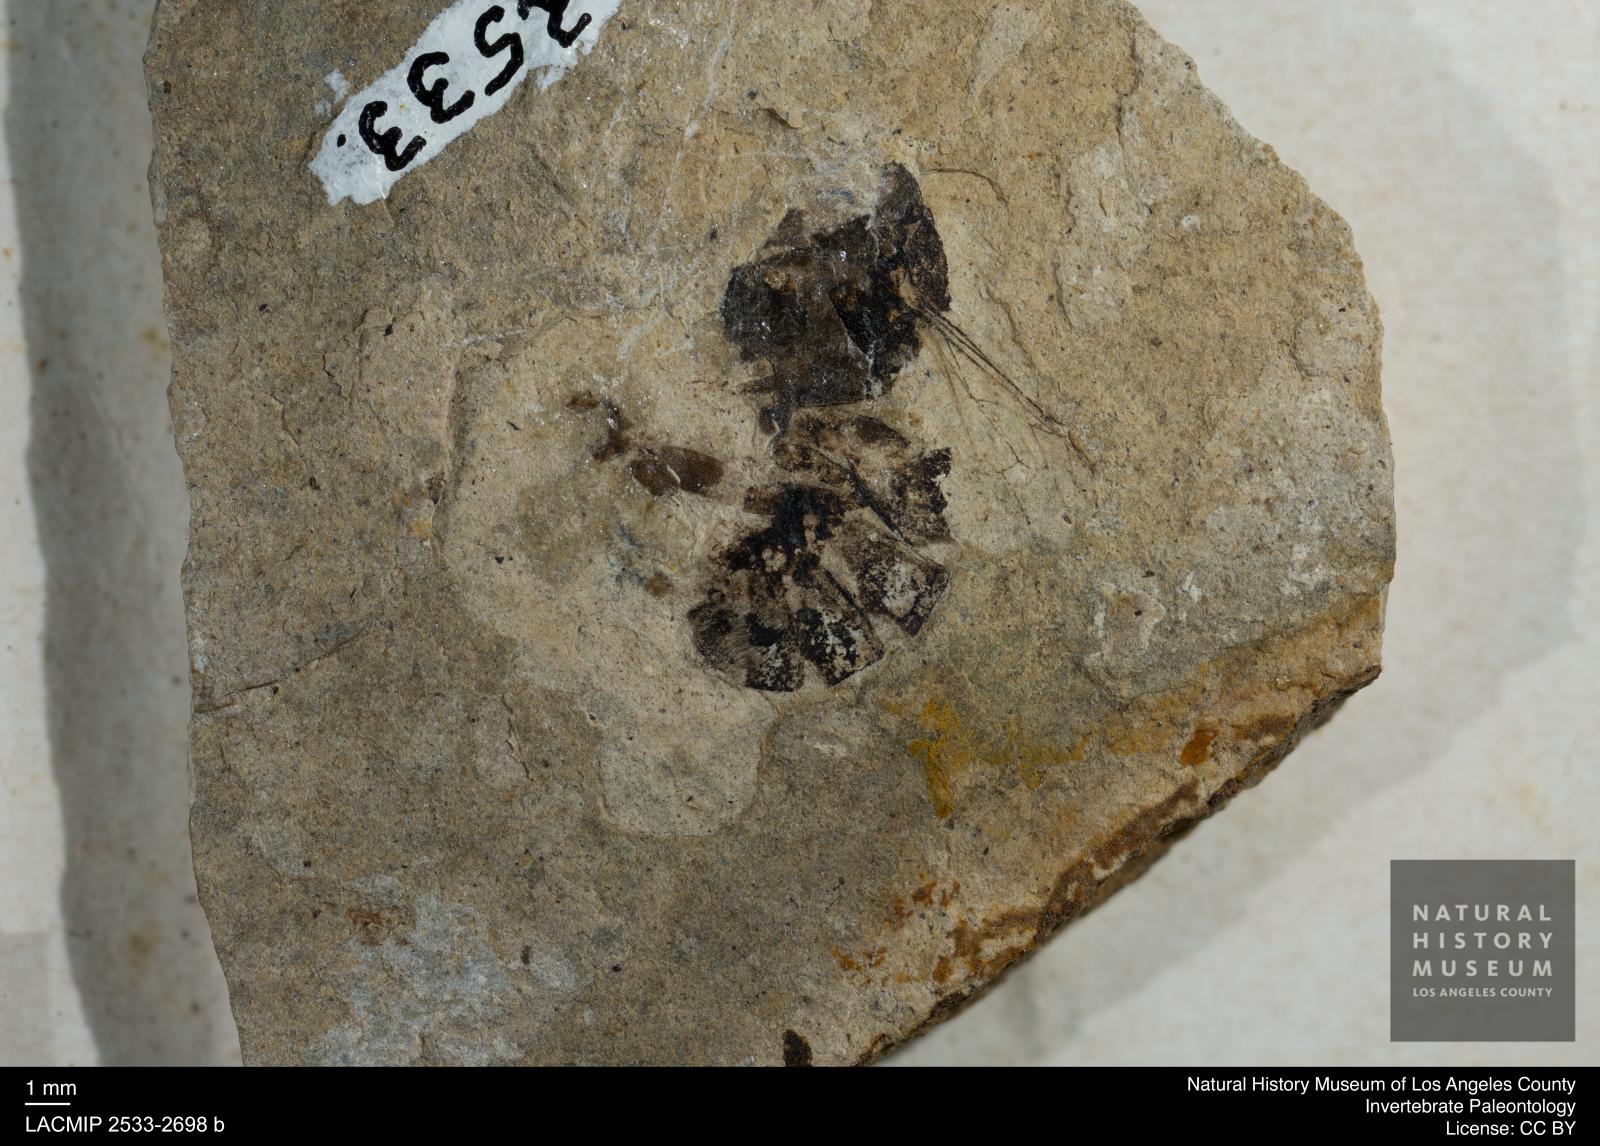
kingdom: Animalia
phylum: Arthropoda
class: Insecta
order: Hymenoptera
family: Apidae
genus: Apis
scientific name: Apis henshawi
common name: Henshaw's honey bee
